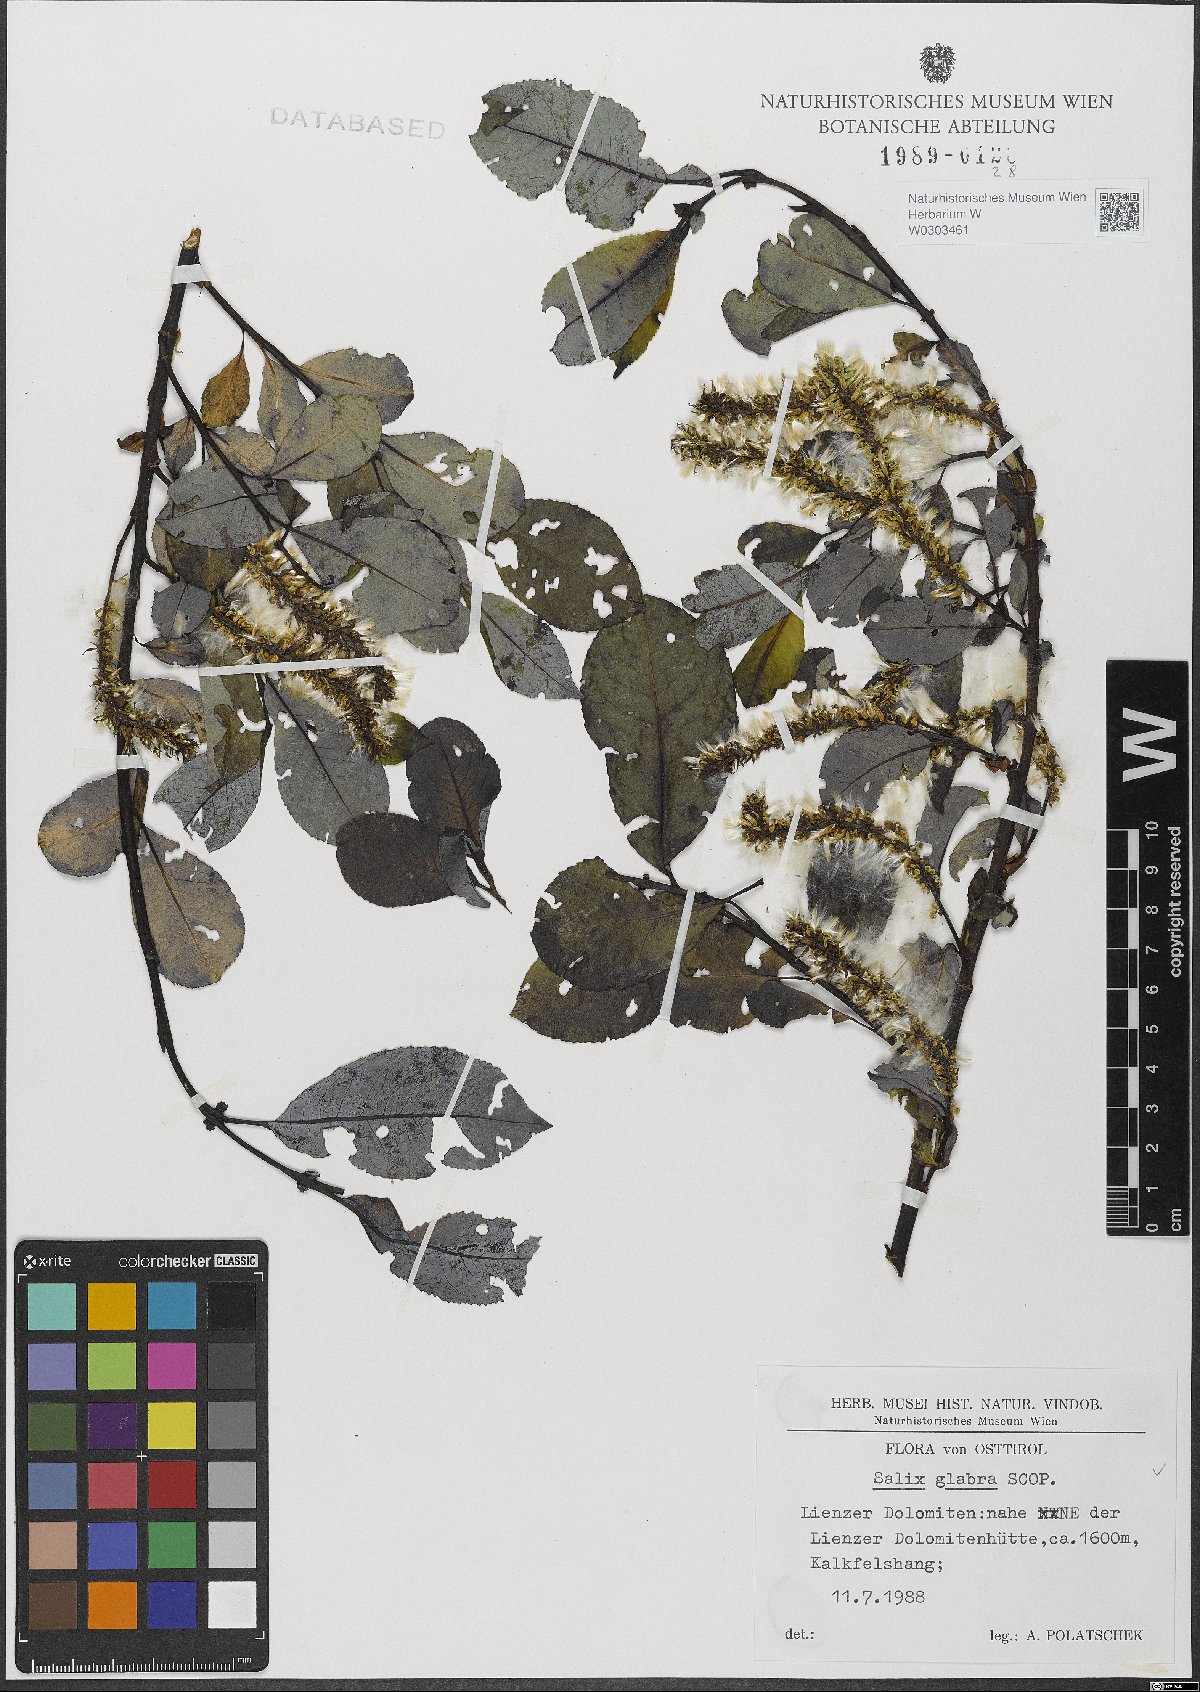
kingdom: Plantae
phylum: Tracheophyta
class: Magnoliopsida
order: Malpighiales
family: Salicaceae
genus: Salix
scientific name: Salix glabra
